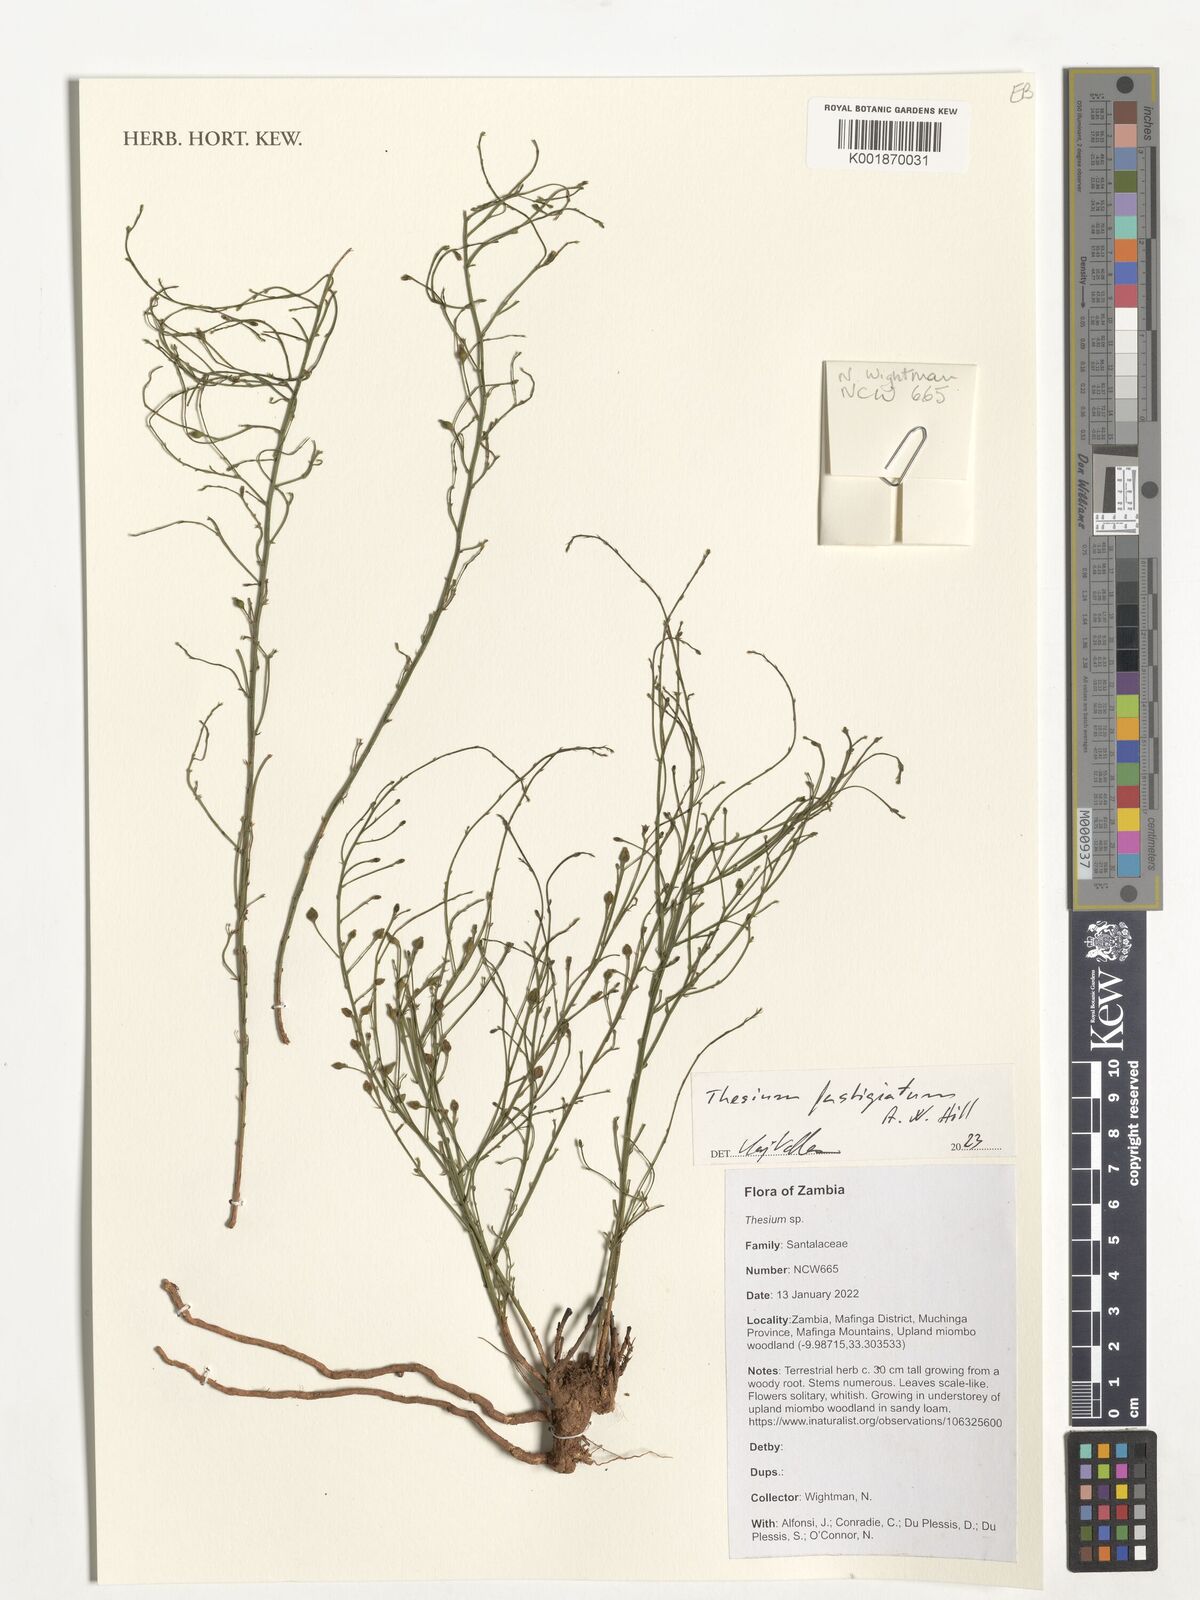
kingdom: Plantae
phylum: Tracheophyta
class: Magnoliopsida
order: Santalales
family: Thesiaceae
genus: Thesium
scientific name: Thesium
